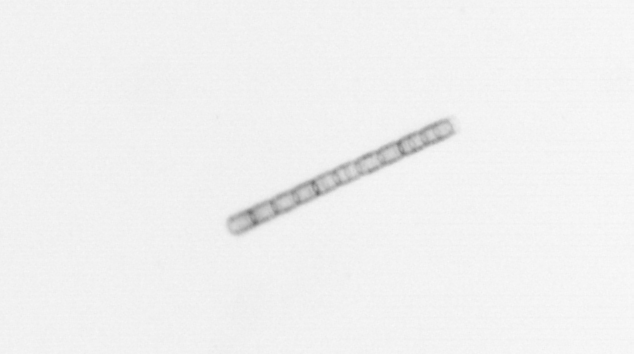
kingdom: Chromista
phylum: Ochrophyta
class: Bacillariophyceae
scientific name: Bacillariophyceae
